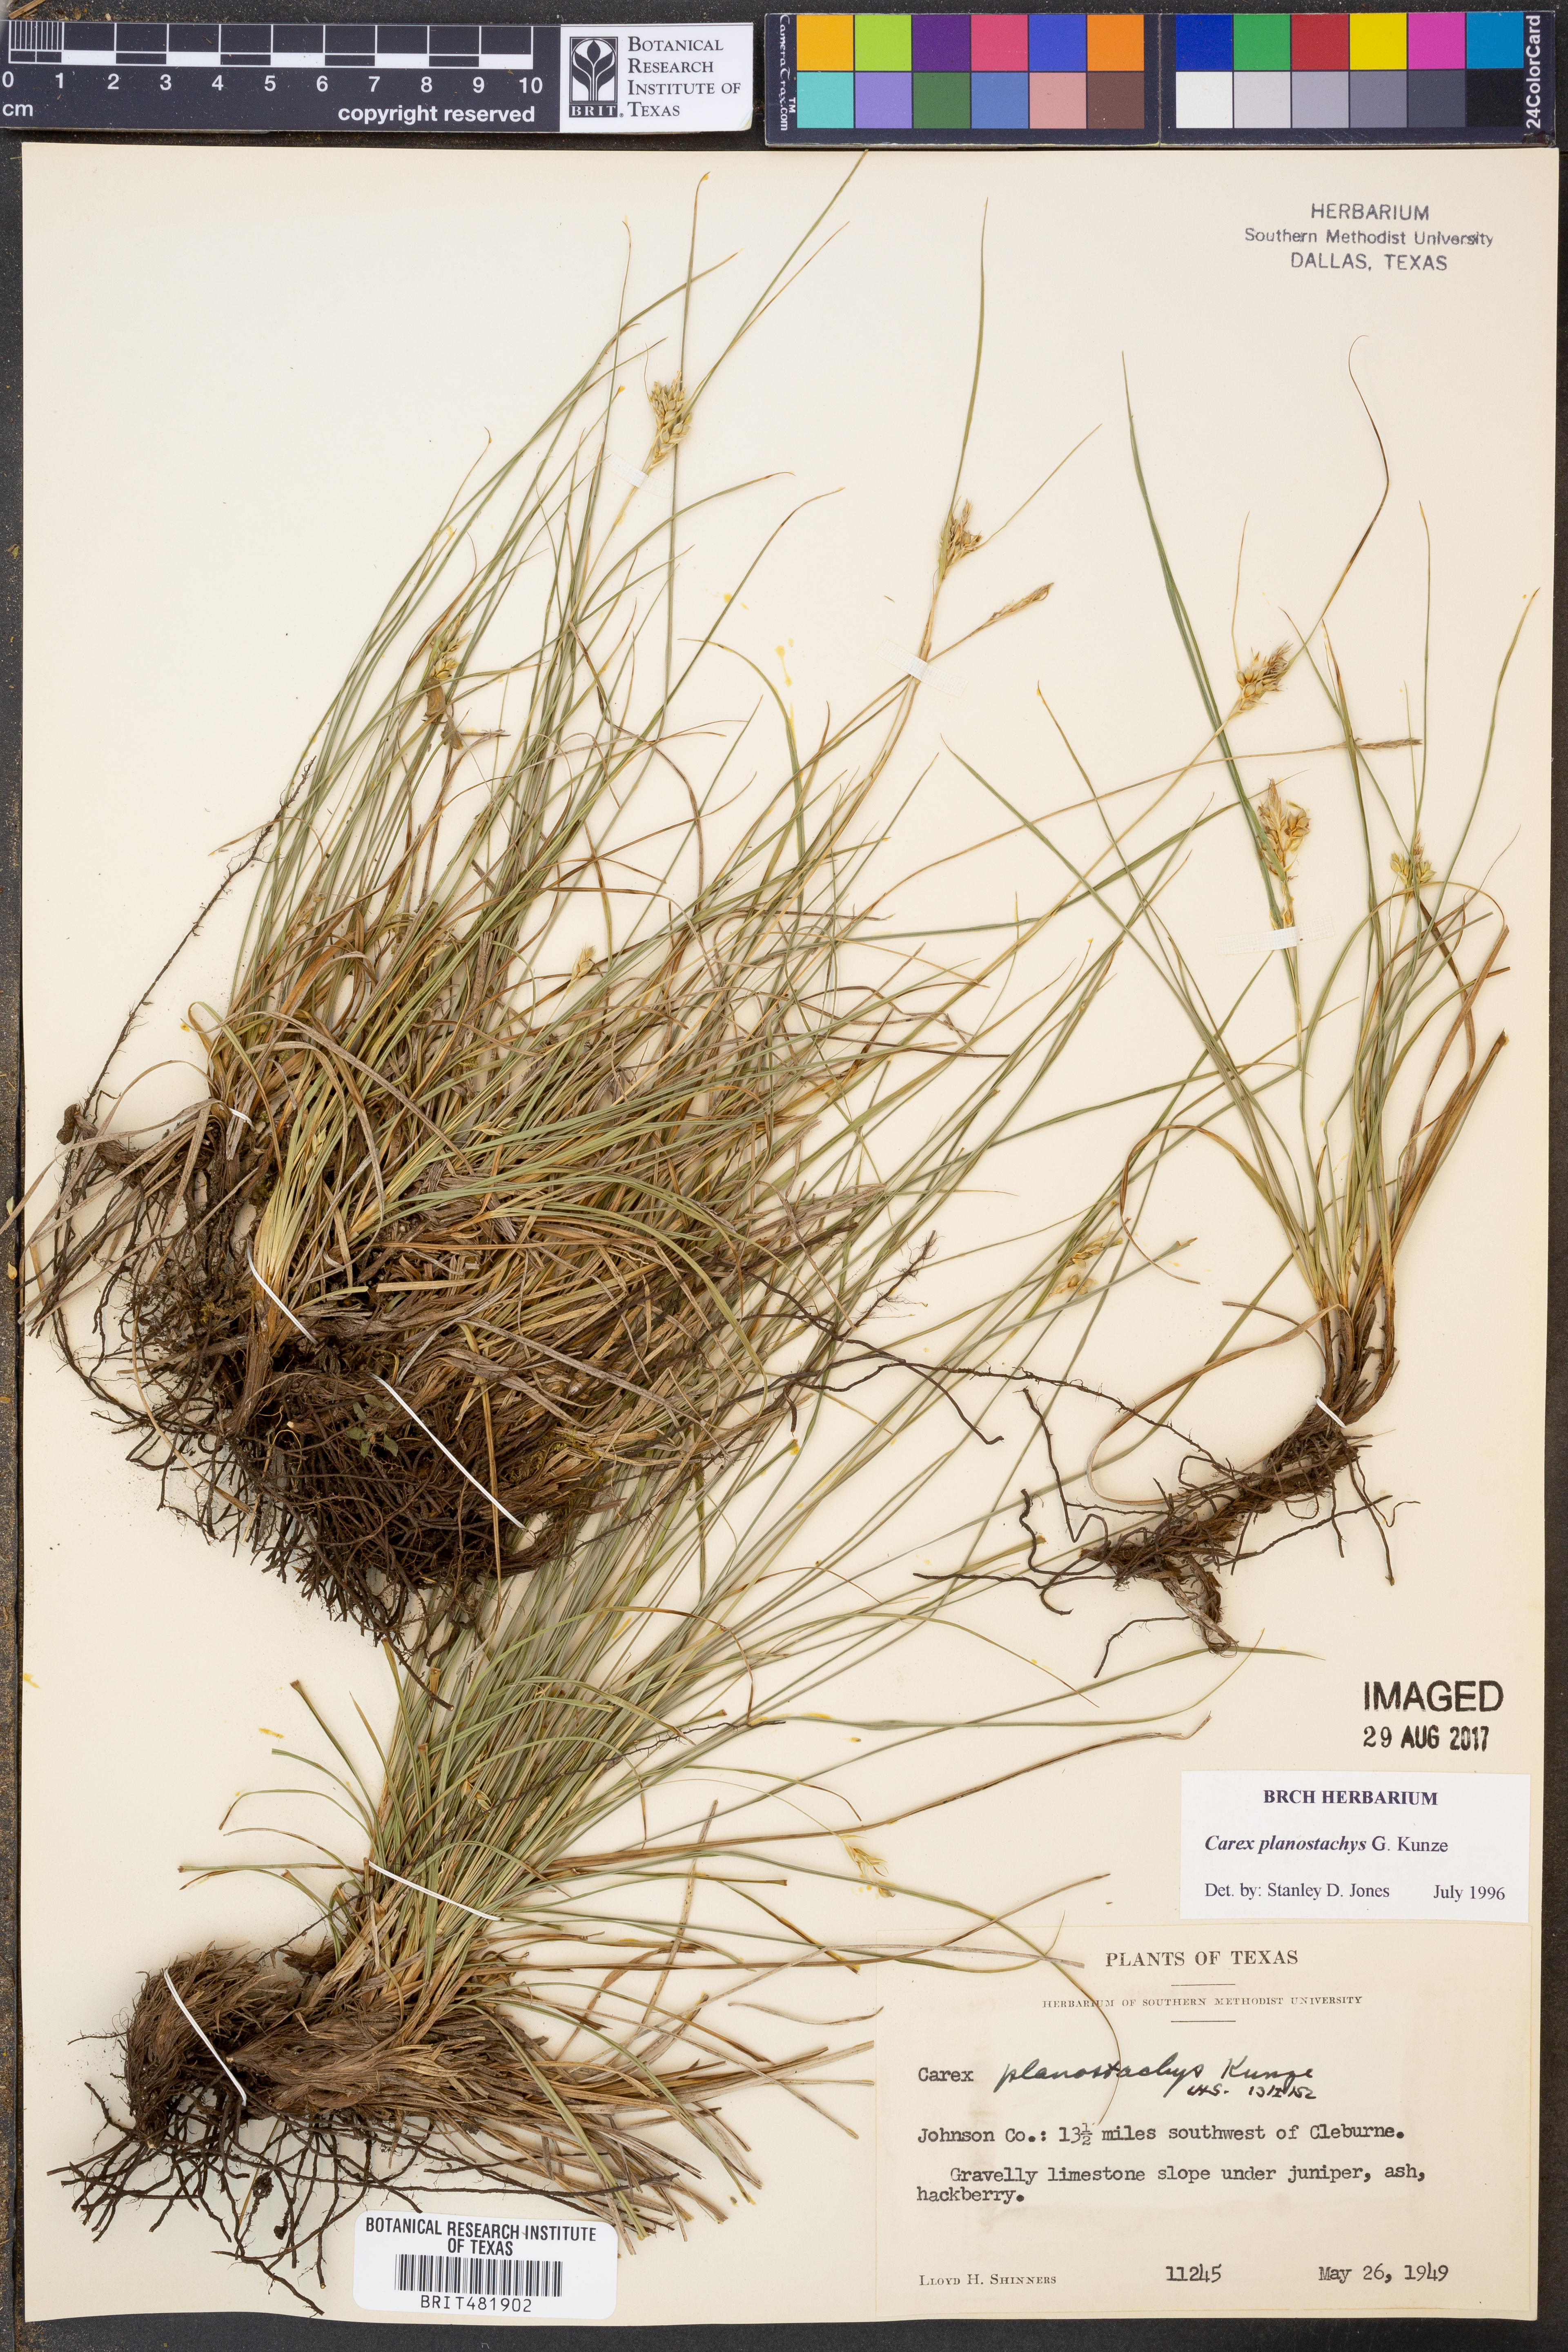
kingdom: Plantae
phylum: Tracheophyta
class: Liliopsida
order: Poales
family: Cyperaceae
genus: Carex
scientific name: Carex planostachys
